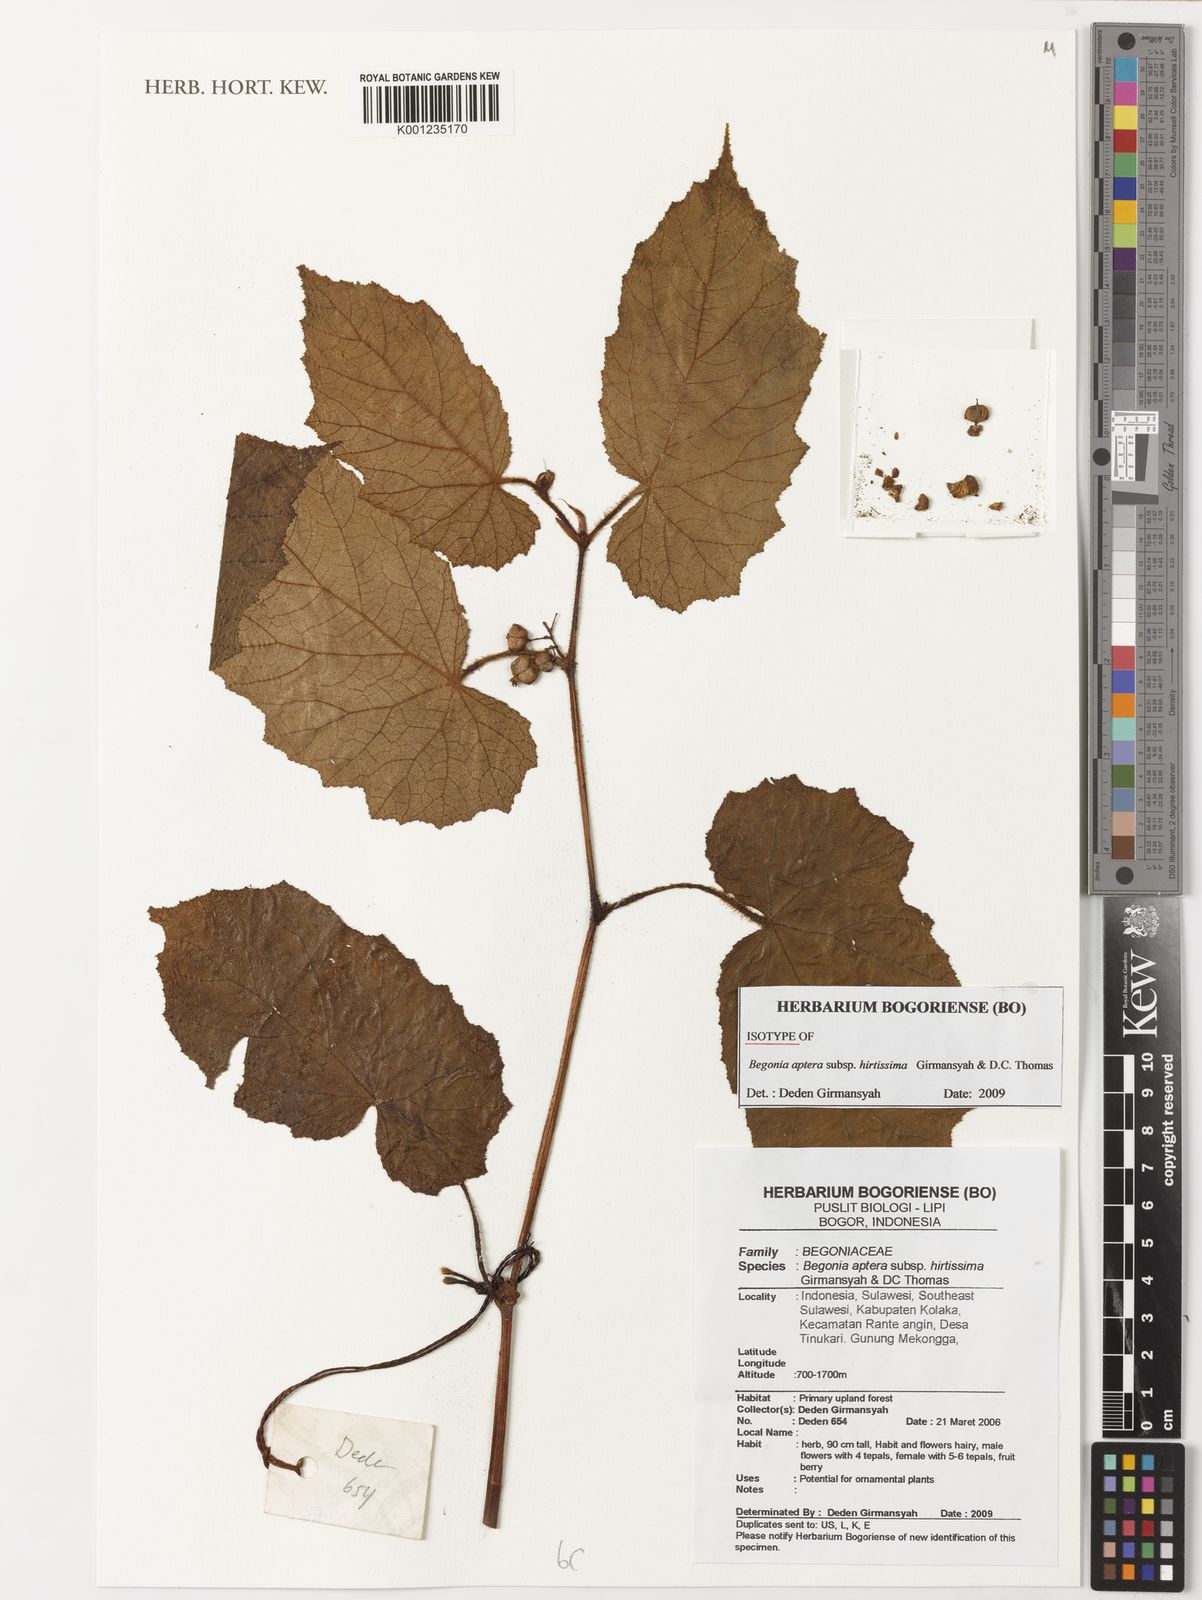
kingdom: Plantae
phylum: Tracheophyta
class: Magnoliopsida
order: Cucurbitales
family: Begoniaceae
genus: Begonia
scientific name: Begonia aptera
